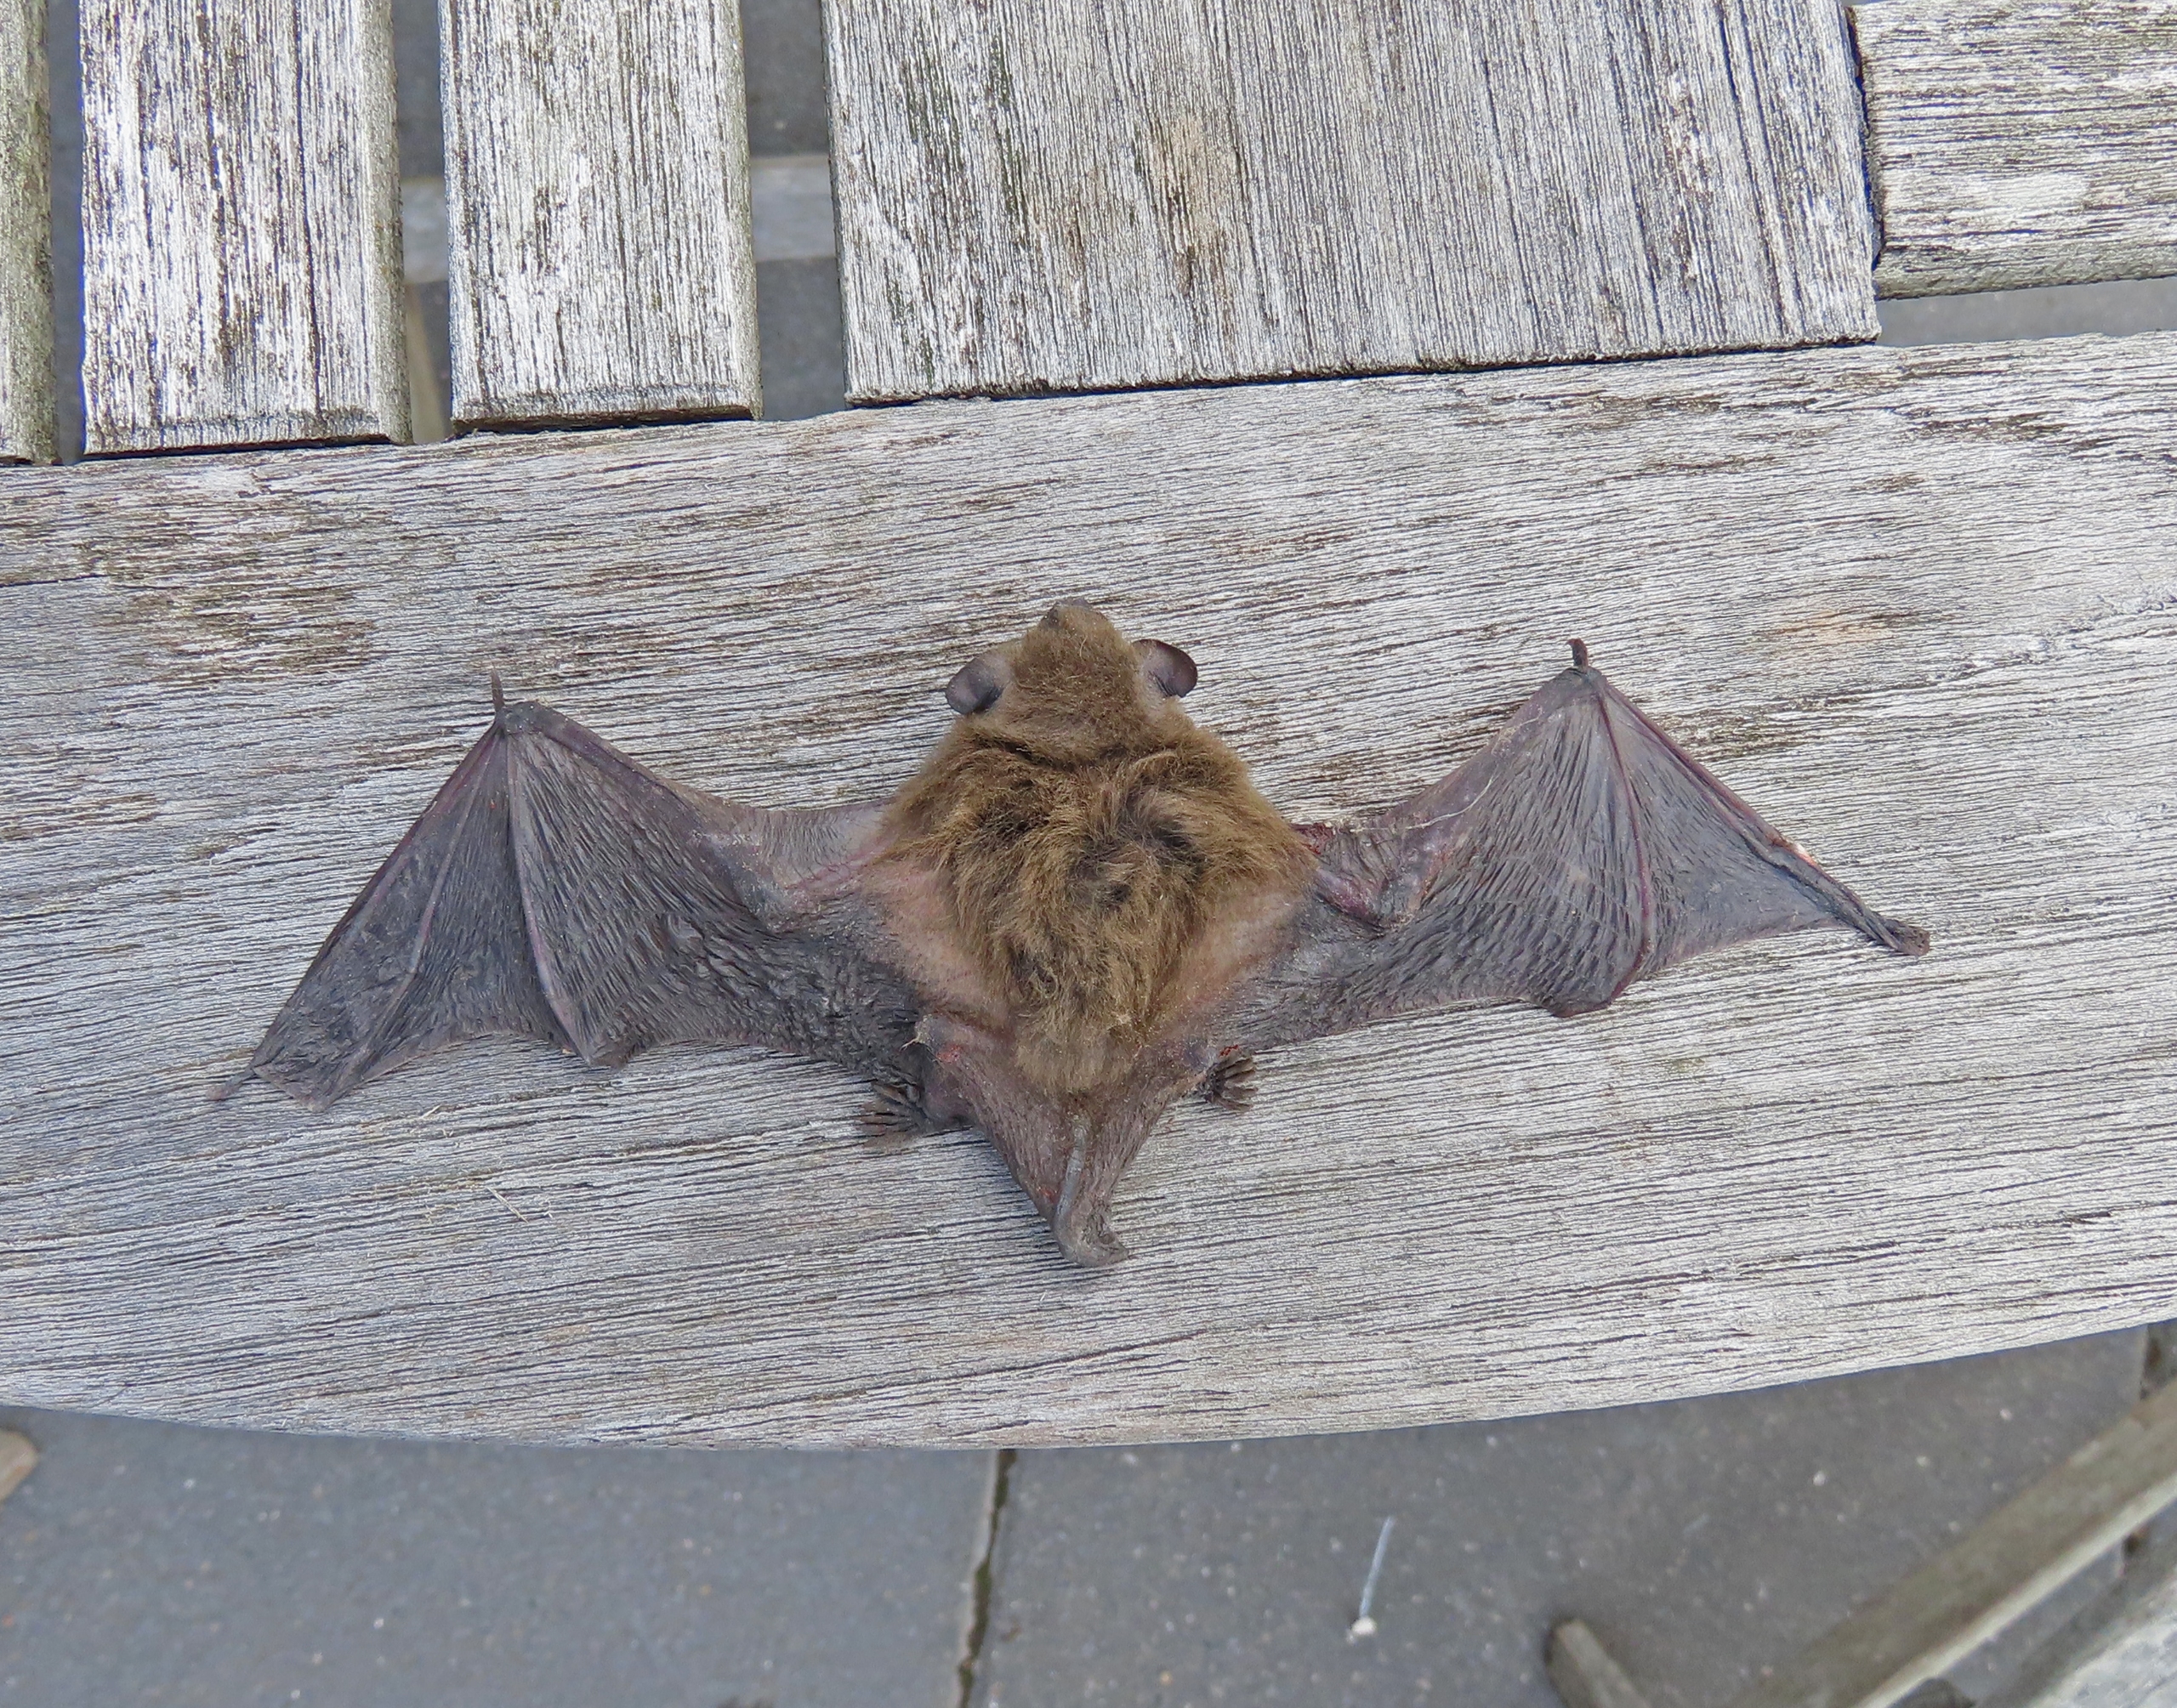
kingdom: Animalia
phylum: Chordata
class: Mammalia
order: Chiroptera
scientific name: Chiroptera
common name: Flagermus
